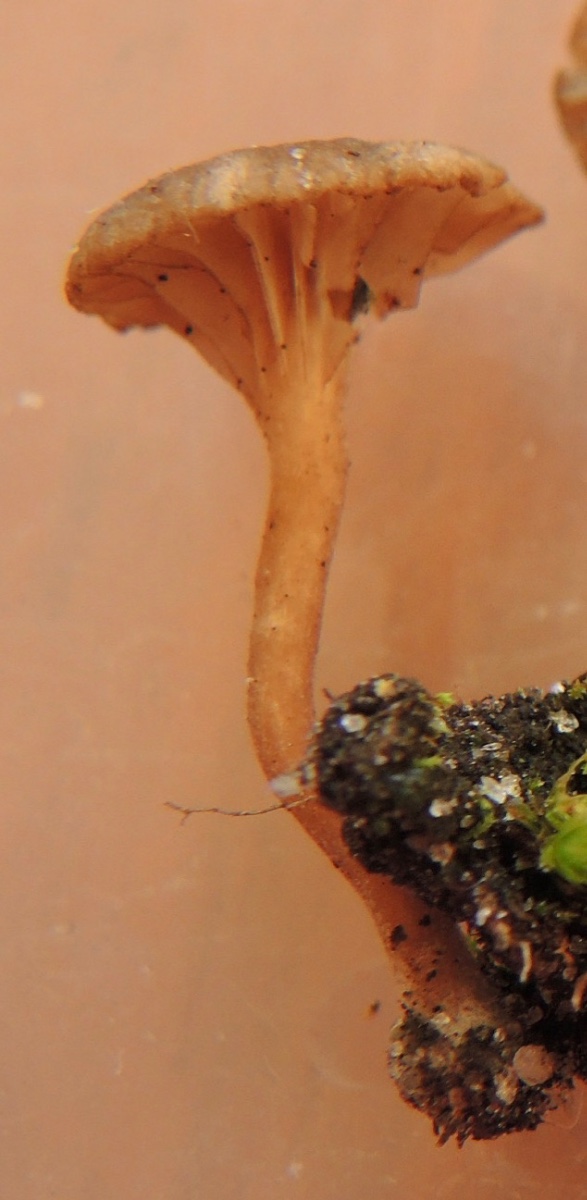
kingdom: Fungi
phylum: Basidiomycota
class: Agaricomycetes
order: Agaricales
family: Hygrophoraceae
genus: Lichenomphalia
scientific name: Lichenomphalia velutina
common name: dunet lavhat
